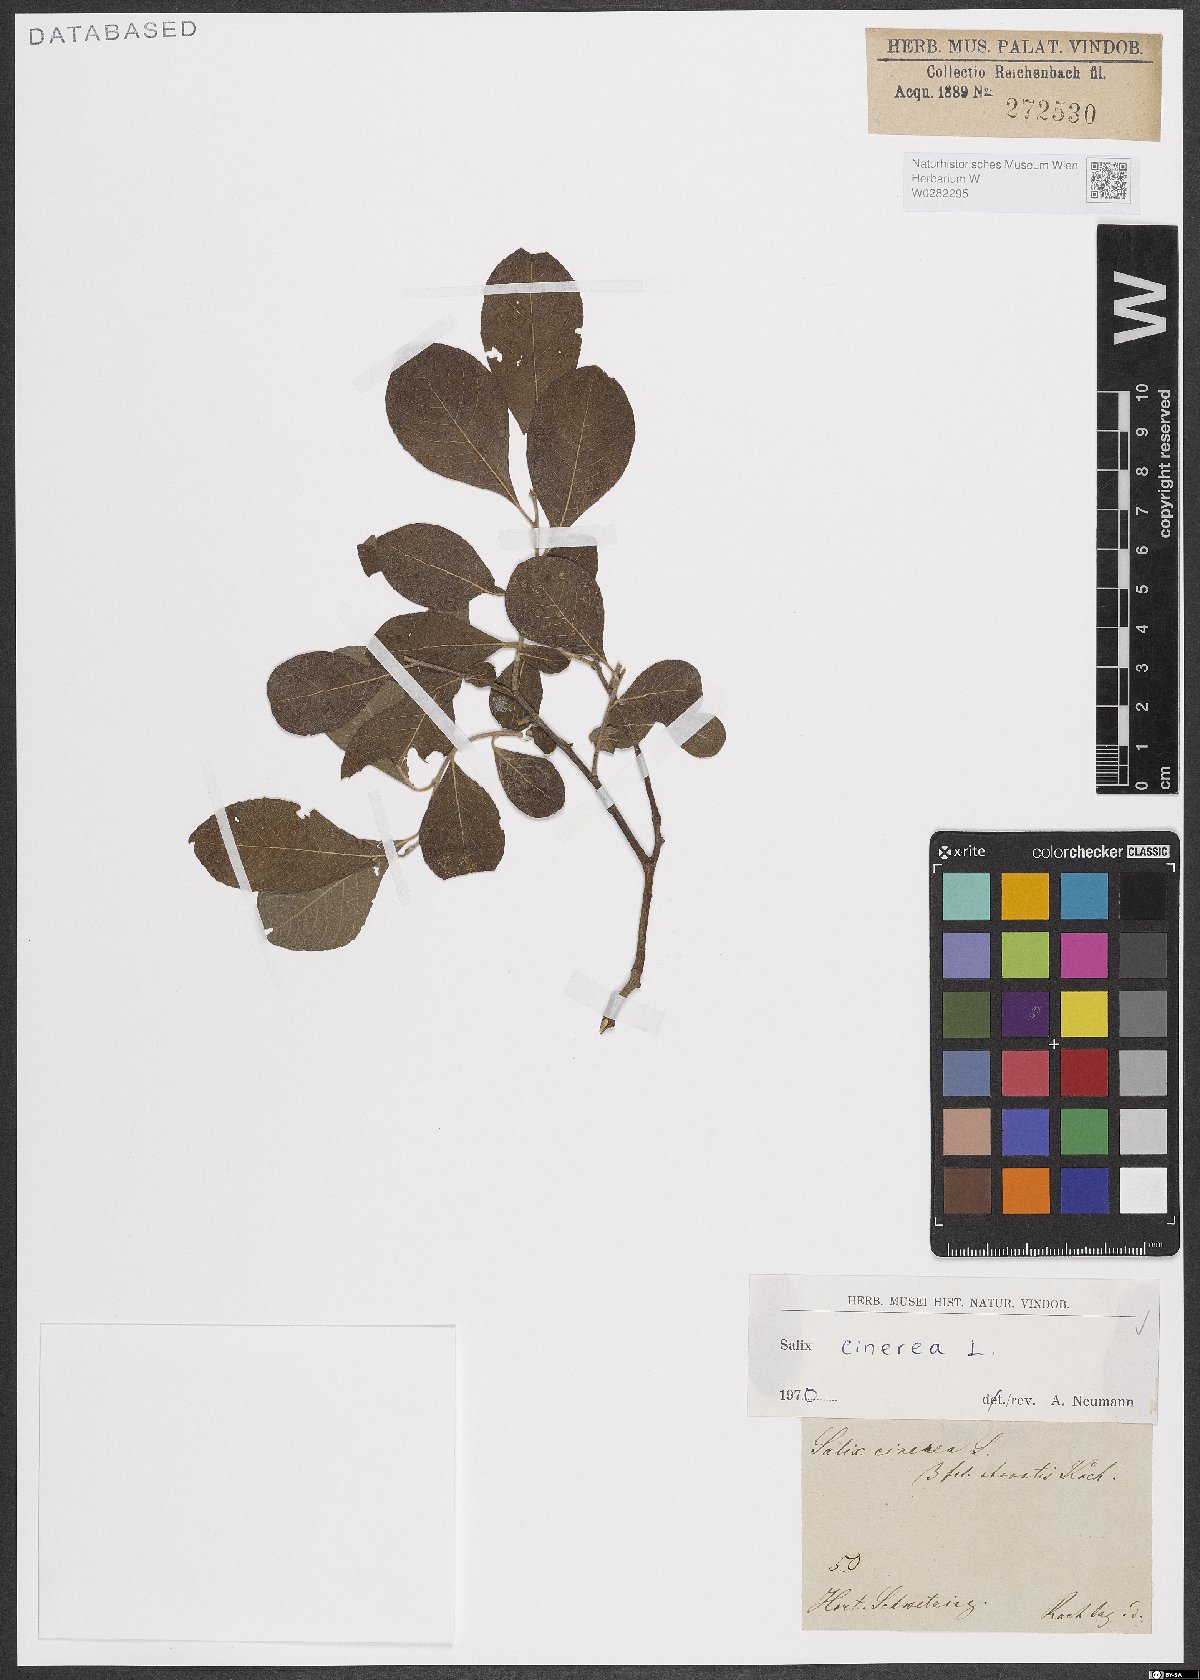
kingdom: Plantae
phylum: Tracheophyta
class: Magnoliopsida
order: Malpighiales
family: Salicaceae
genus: Salix
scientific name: Salix cinerea
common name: Common sallow
